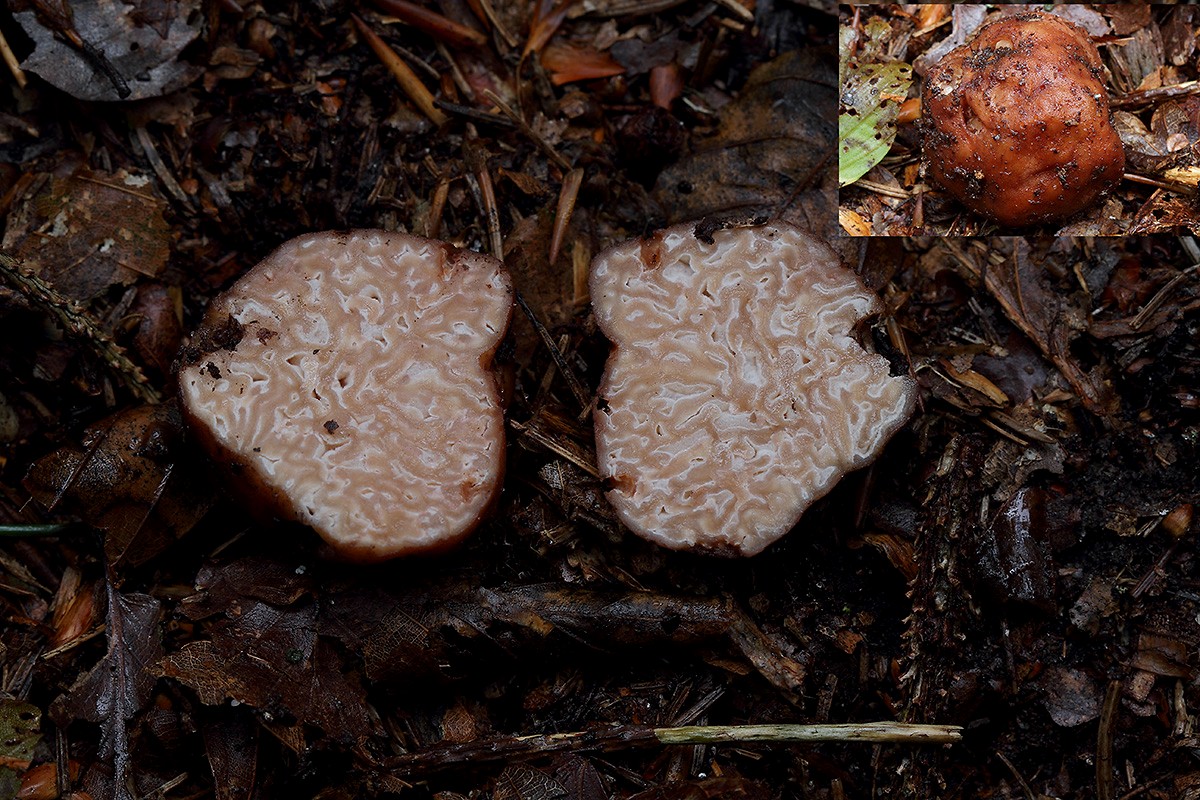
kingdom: Fungi
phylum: Ascomycota
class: Pezizomycetes
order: Pezizales
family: Discinaceae
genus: Hydnotrya
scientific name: Hydnotrya tulasnei
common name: almindelig foldtrøffel
